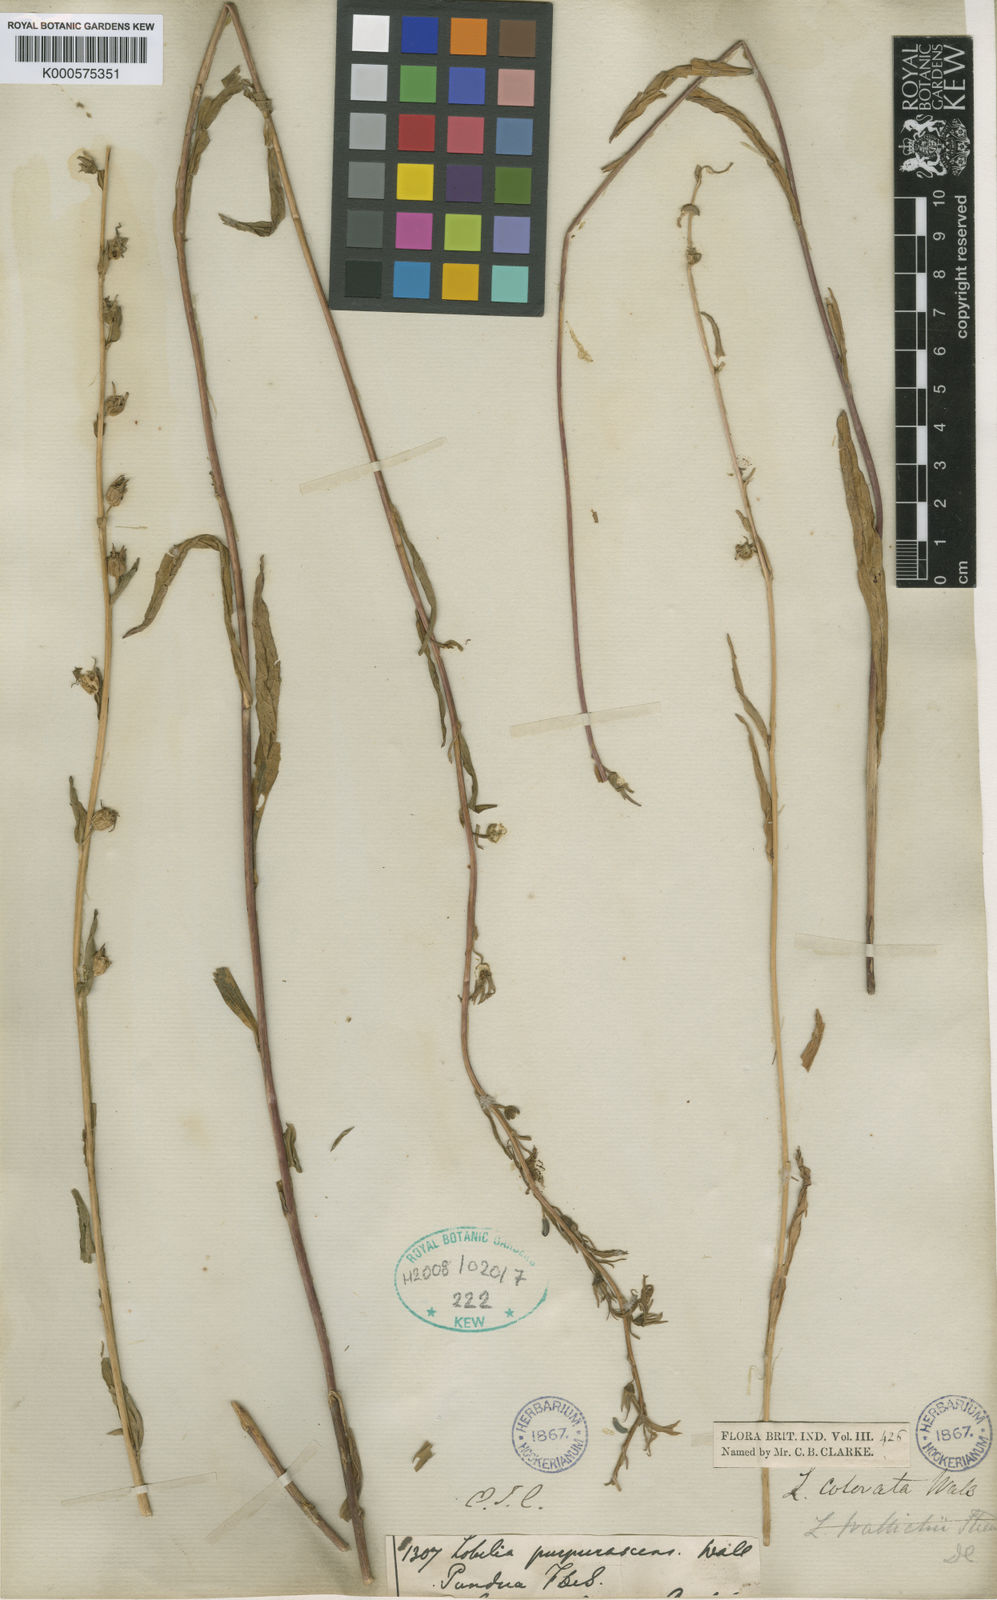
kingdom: Plantae
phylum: Tracheophyta
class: Magnoliopsida
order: Asterales
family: Campanulaceae
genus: Lobelia
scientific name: Lobelia
